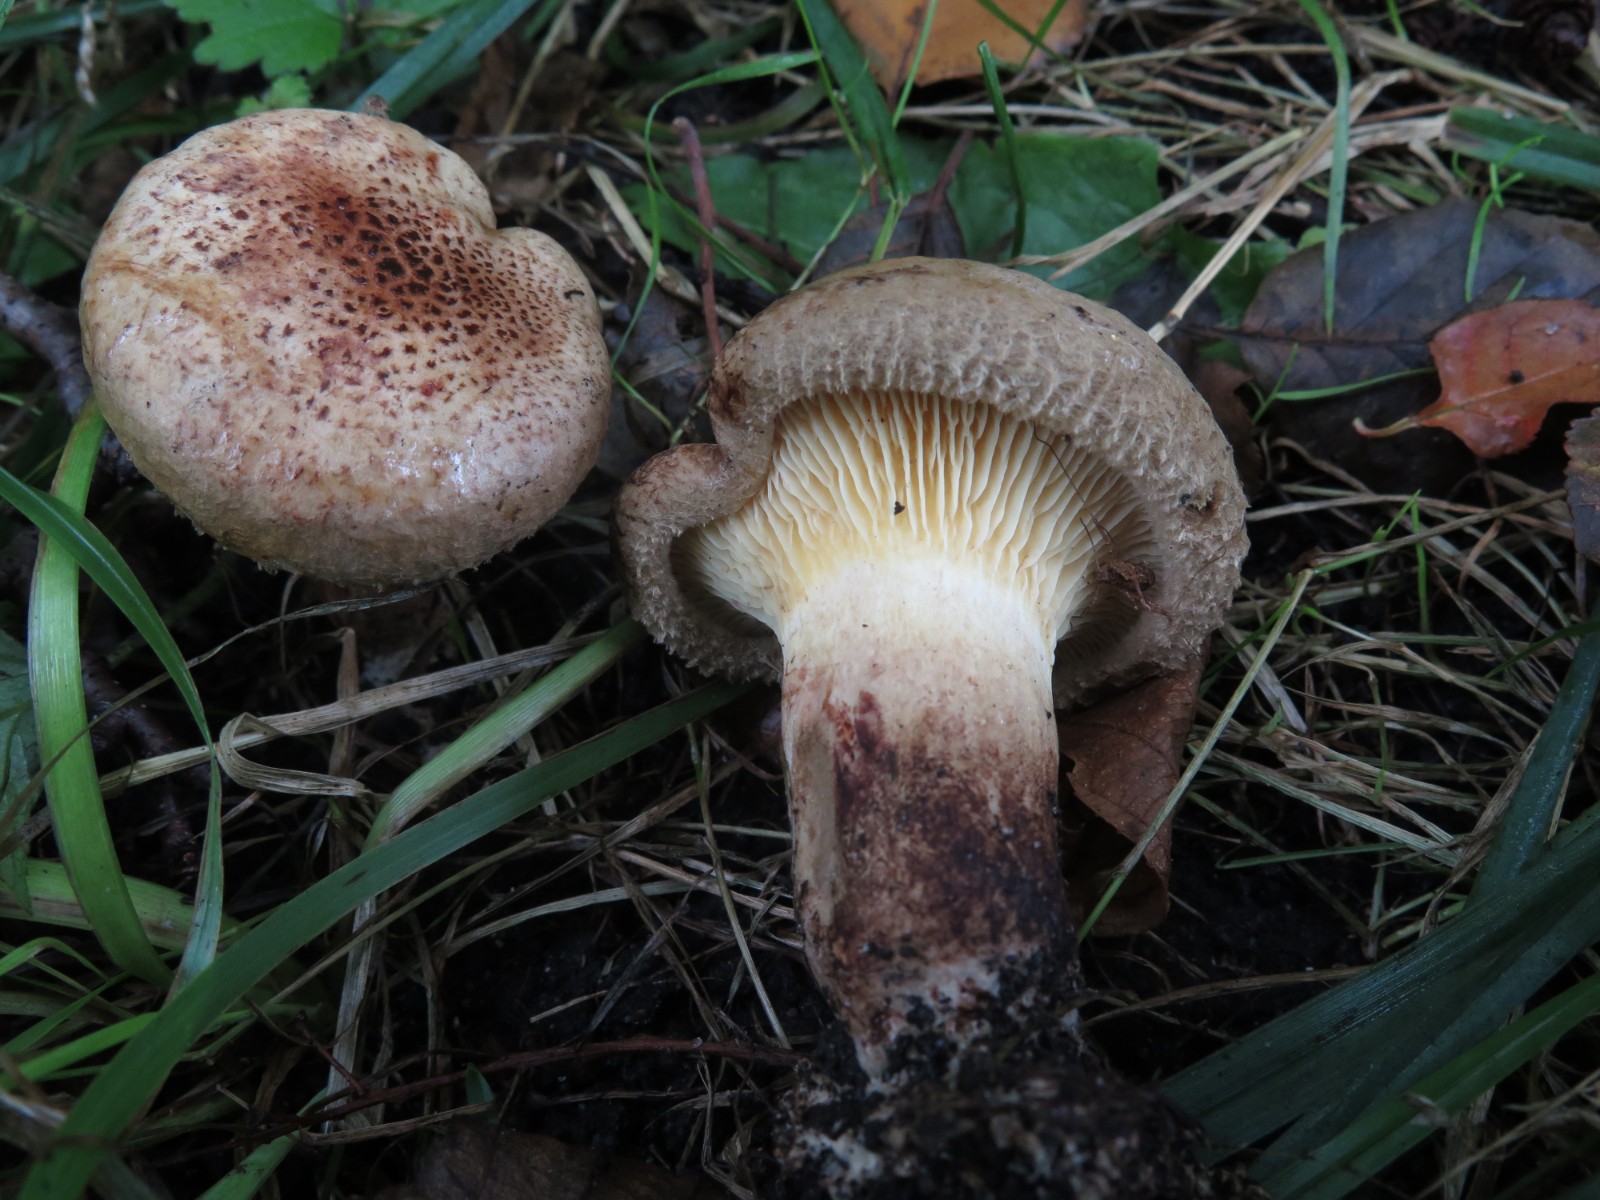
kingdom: Fungi
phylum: Basidiomycota
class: Agaricomycetes
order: Boletales
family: Paxillaceae
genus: Paxillus
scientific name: Paxillus rubicundulus
